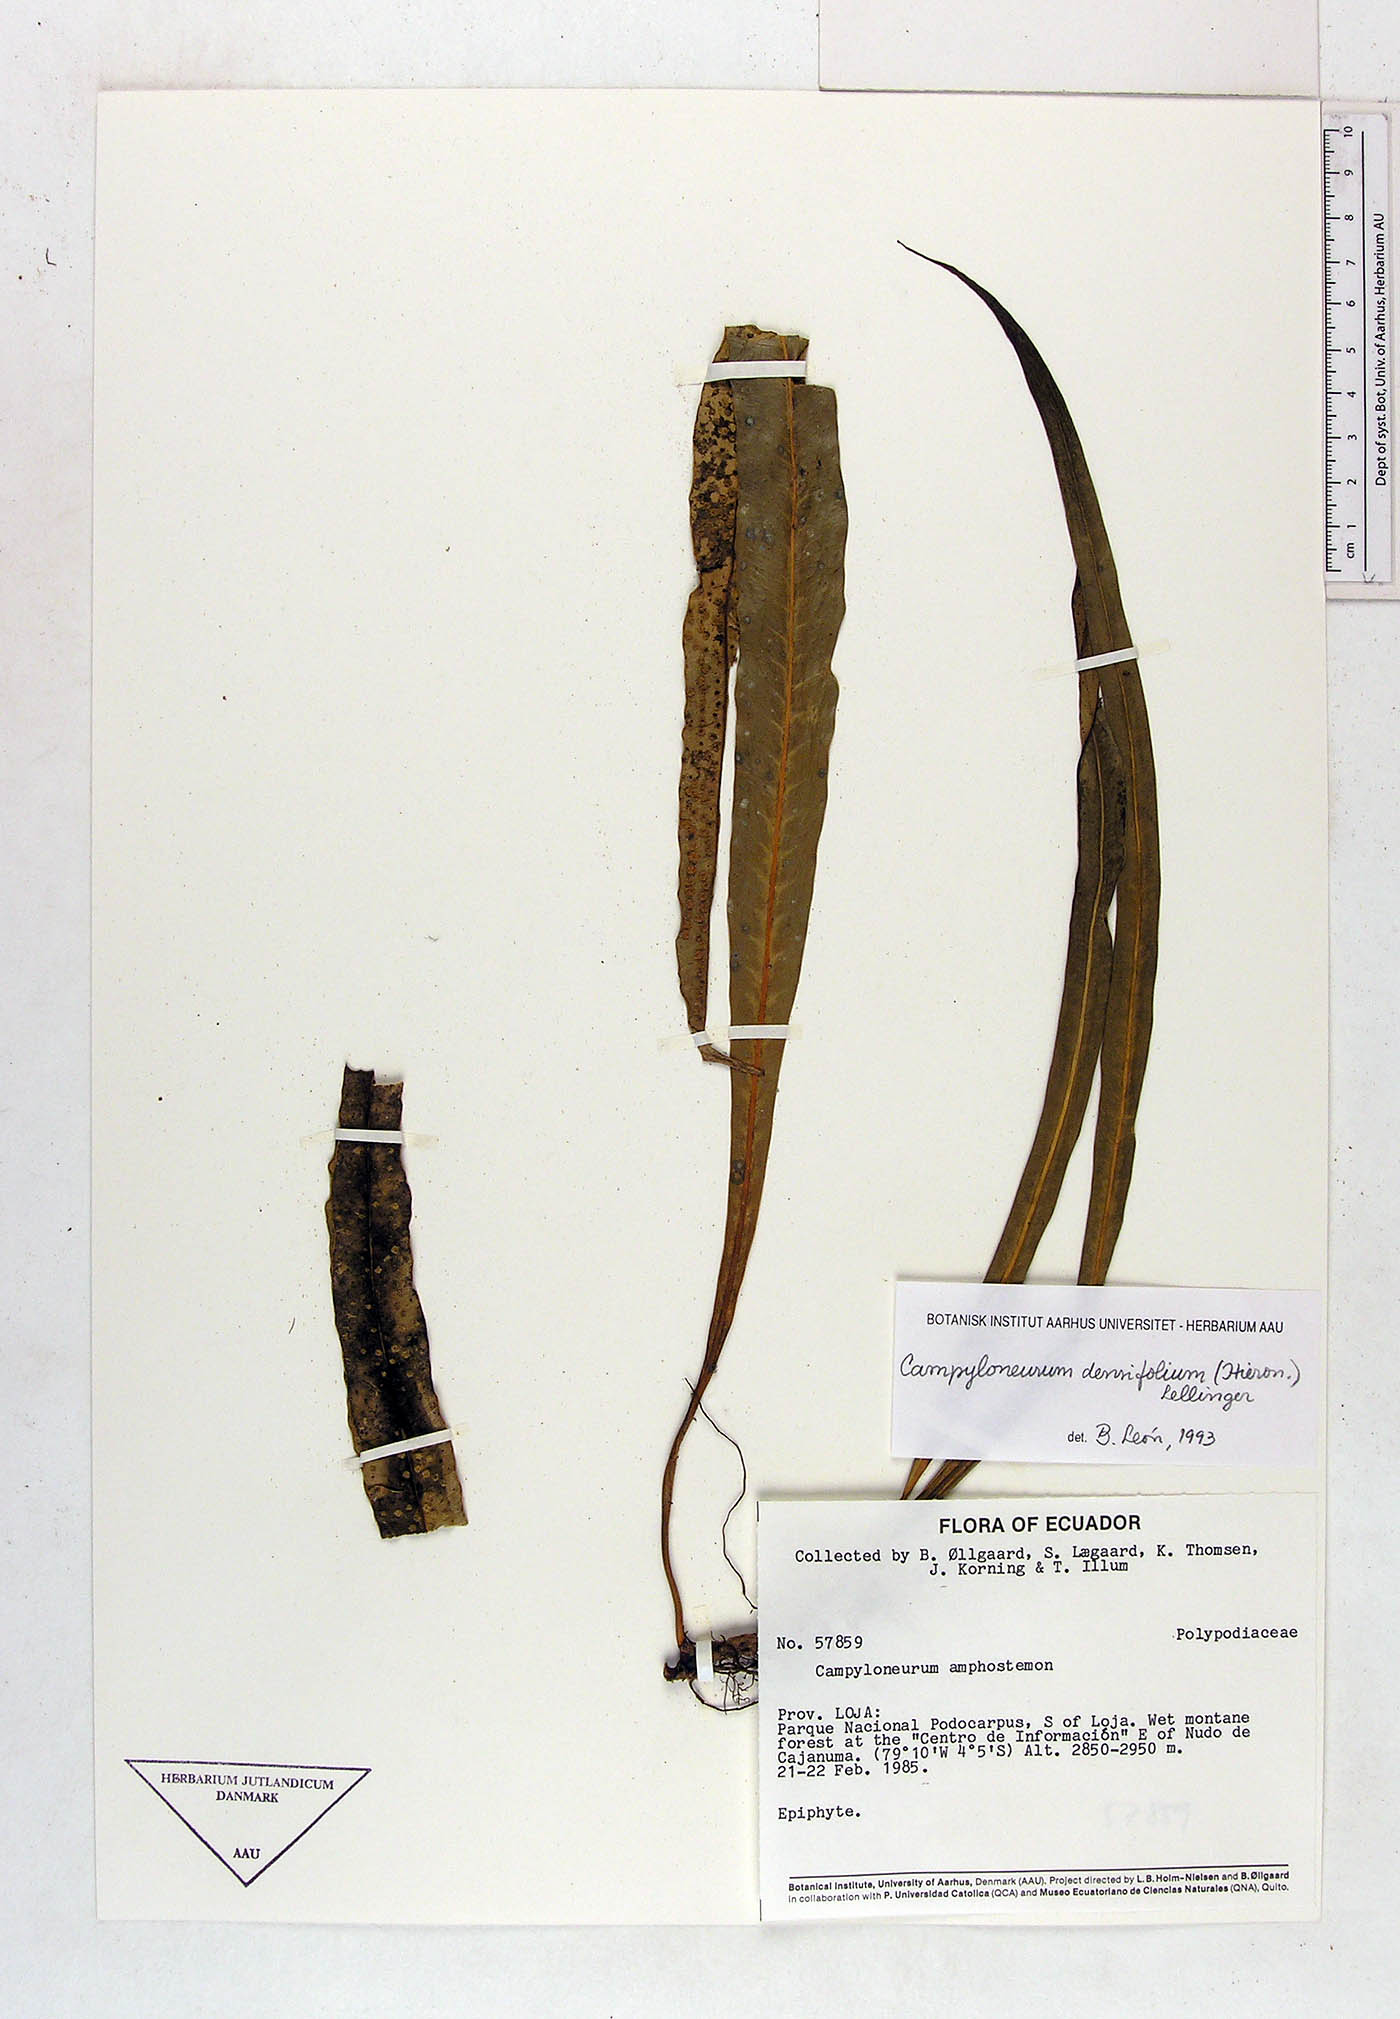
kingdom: Plantae
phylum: Tracheophyta
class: Polypodiopsida
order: Polypodiales
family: Polypodiaceae
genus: Campyloneurum
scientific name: Campyloneurum densifolium
